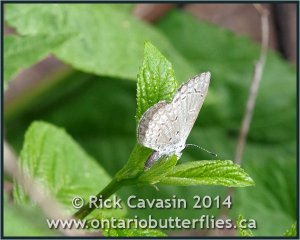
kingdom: Animalia
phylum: Arthropoda
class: Insecta
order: Lepidoptera
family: Lycaenidae
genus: Celastrina
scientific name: Celastrina lucia
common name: Northern Spring Azure
